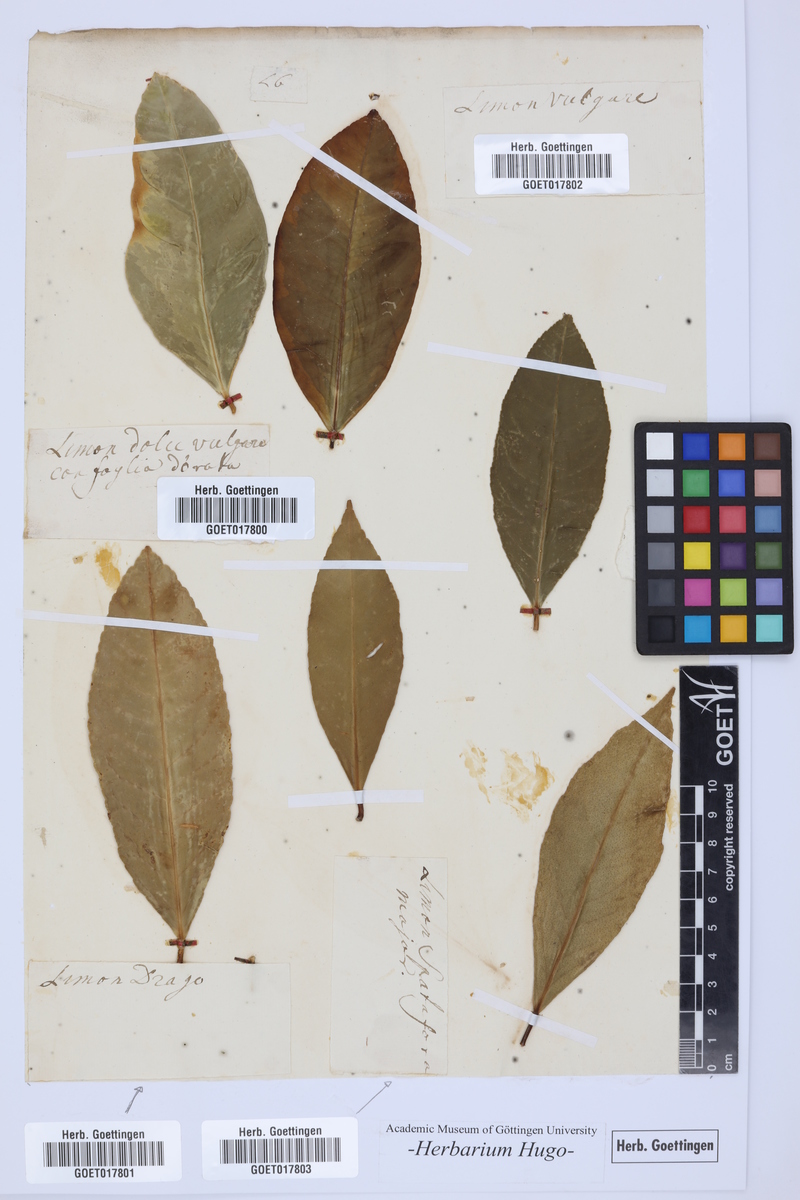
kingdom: Plantae
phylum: Tracheophyta
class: Magnoliopsida
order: Sapindales
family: Rutaceae
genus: Citrus
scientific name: Citrus
